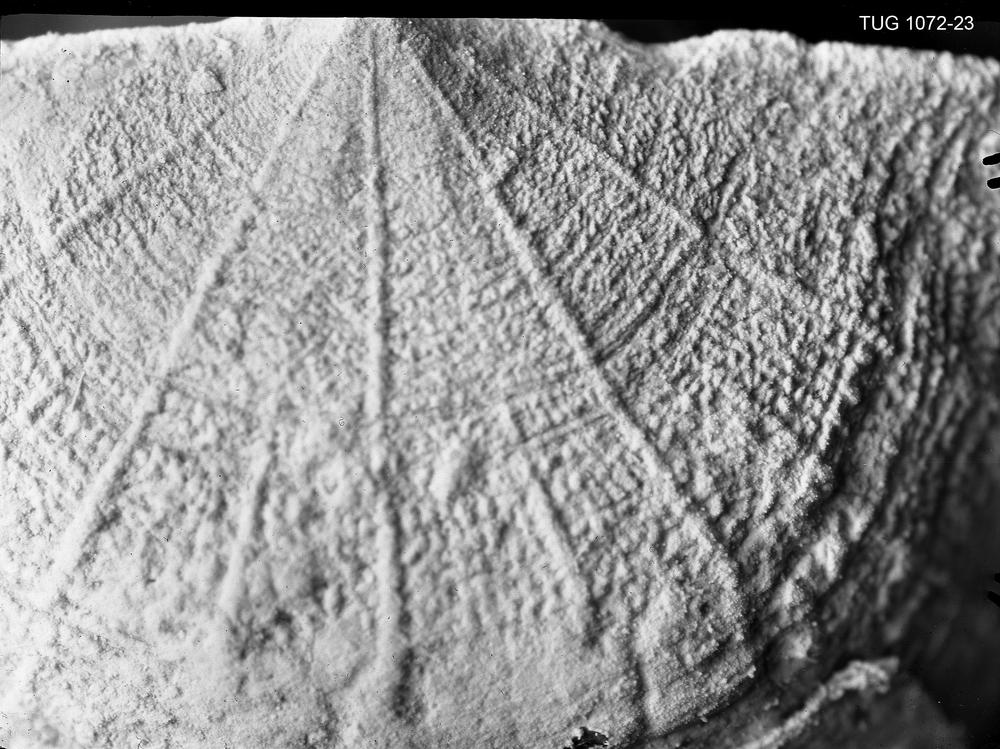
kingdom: Animalia
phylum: Brachiopoda
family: Plectambonitidae
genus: Plectambonites
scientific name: Plectambonites aranea
